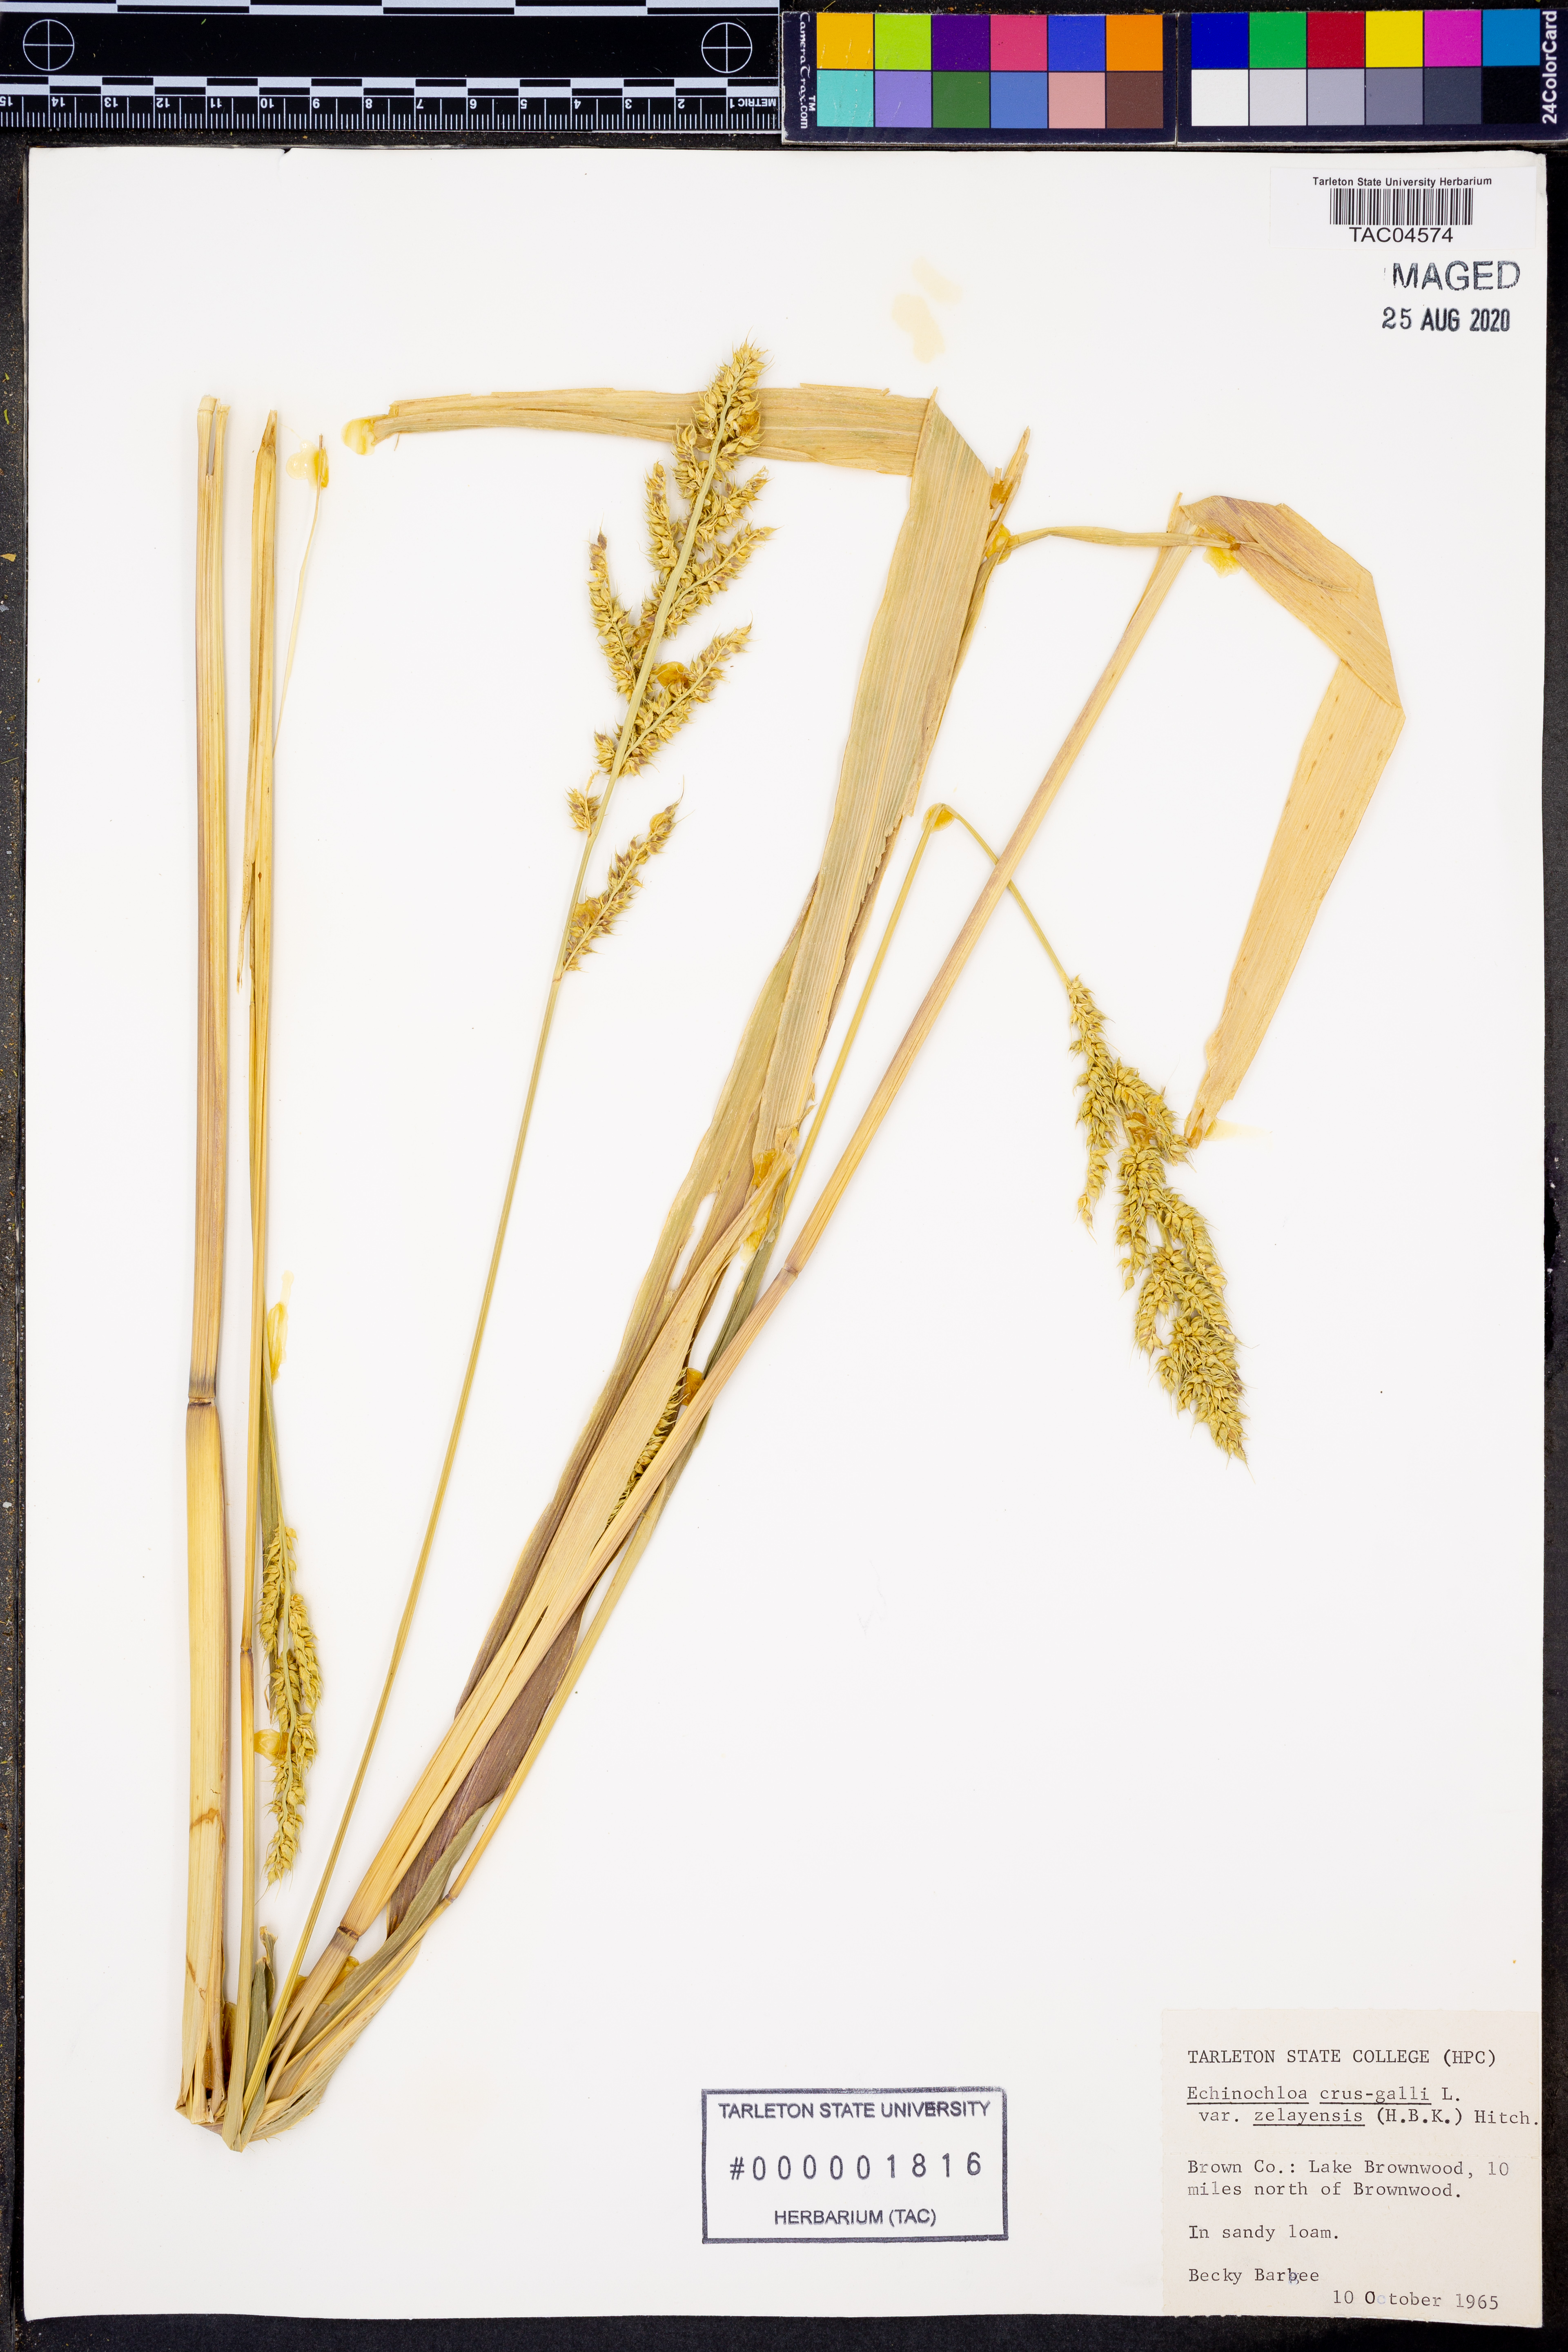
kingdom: Plantae
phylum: Tracheophyta
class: Liliopsida
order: Poales
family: Poaceae
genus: Echinochloa
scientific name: Echinochloa crus-galli
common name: Cockspur
